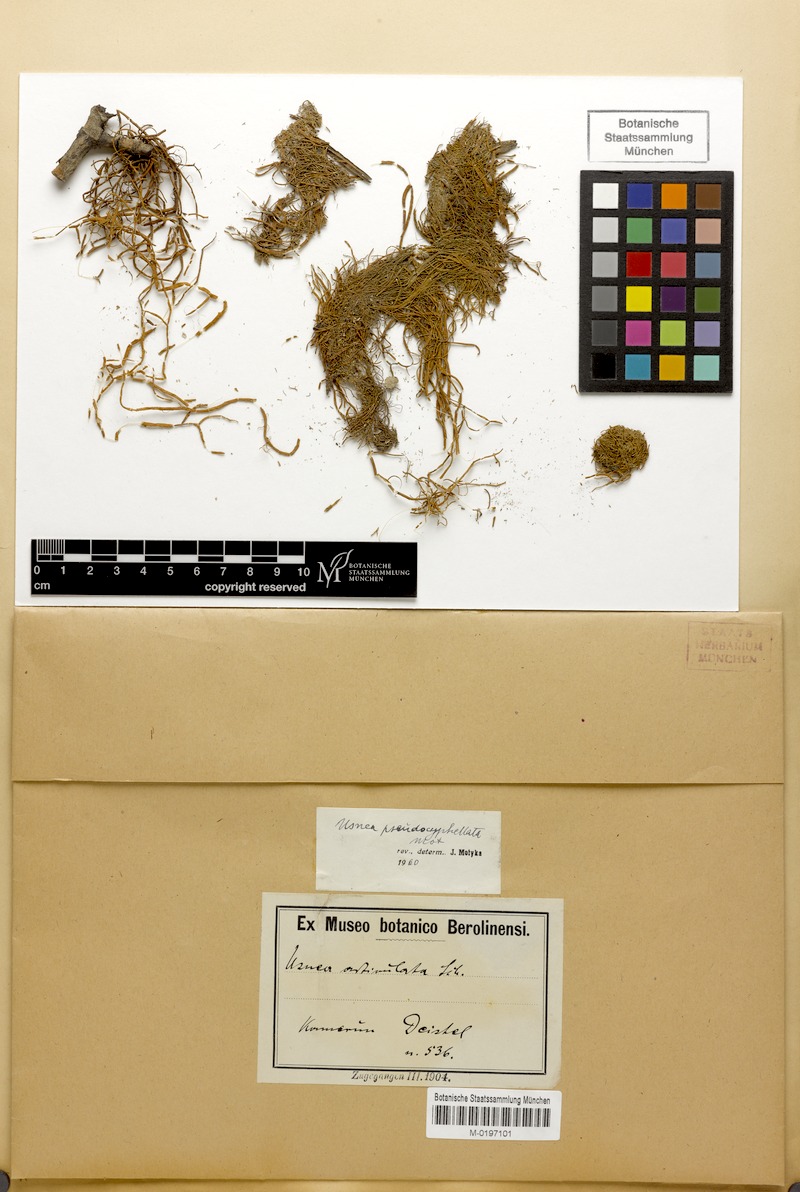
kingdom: Fungi
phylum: Ascomycota
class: Lecanoromycetes
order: Lecanorales
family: Parmeliaceae
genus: Usnea
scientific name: Usnea
